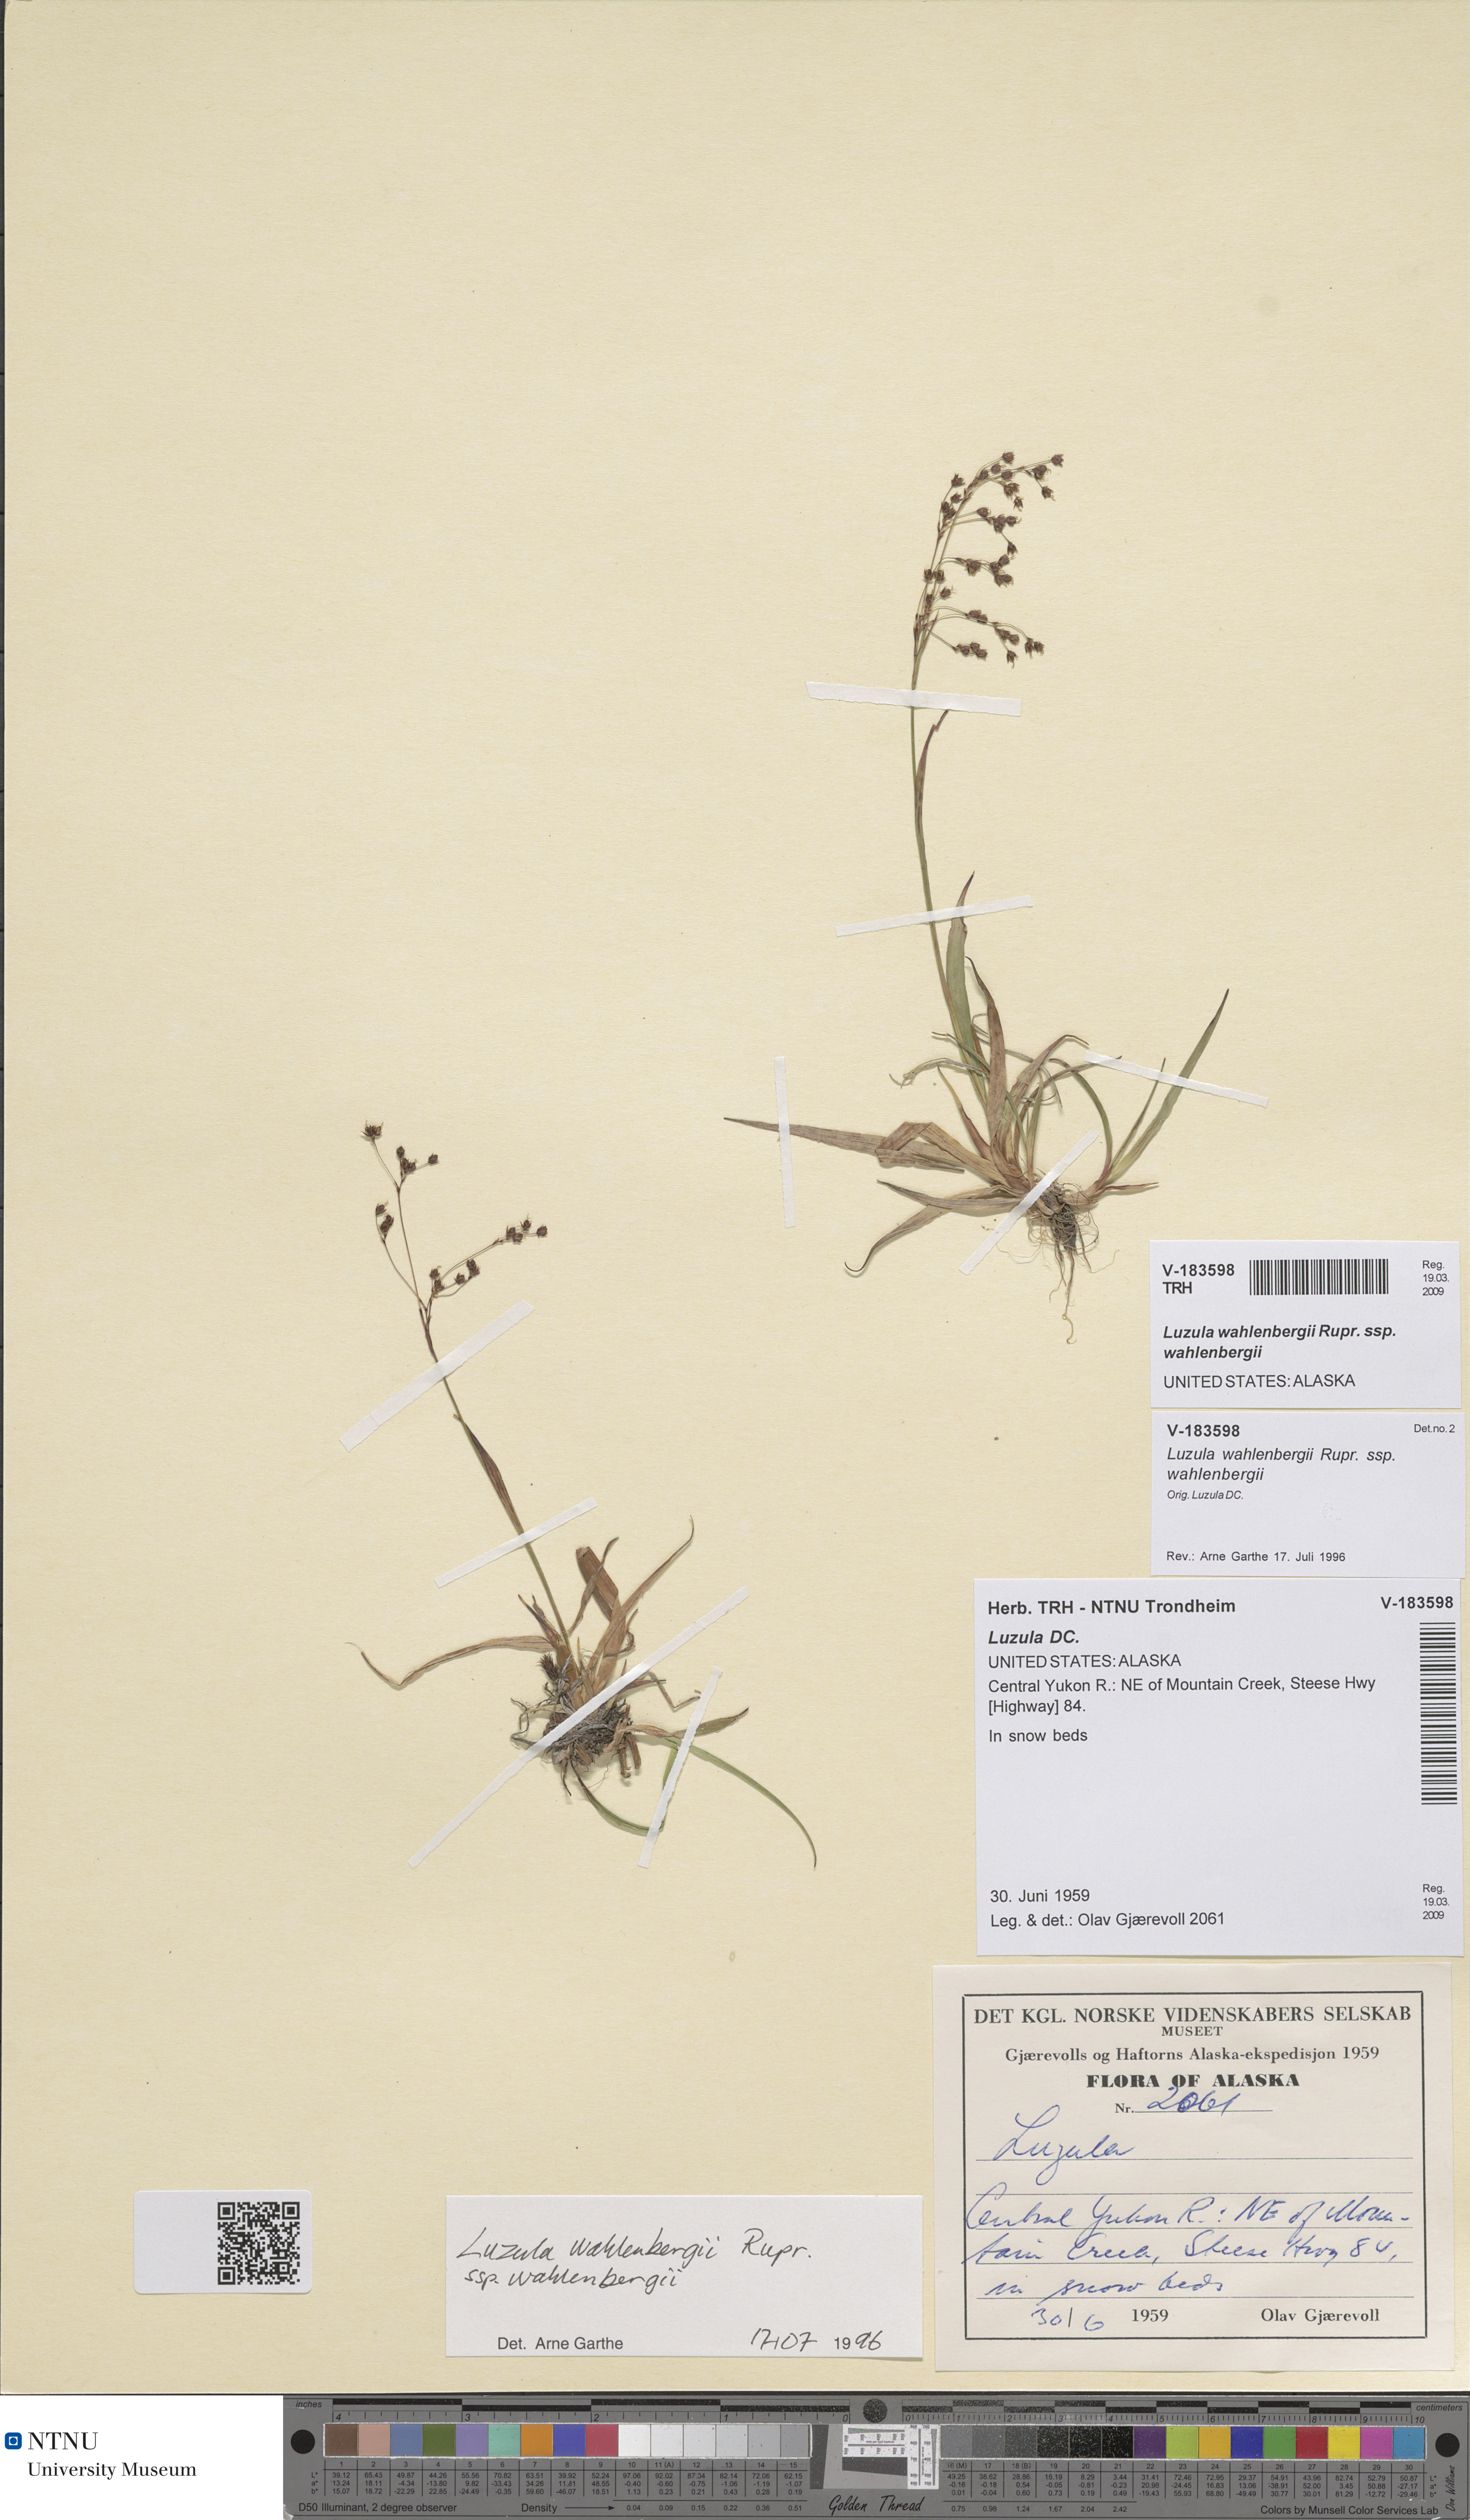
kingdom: Plantae
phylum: Tracheophyta
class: Liliopsida
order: Poales
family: Juncaceae
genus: Luzula
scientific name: Luzula wahlenbergii
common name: Wahlenberg's wood-rush
